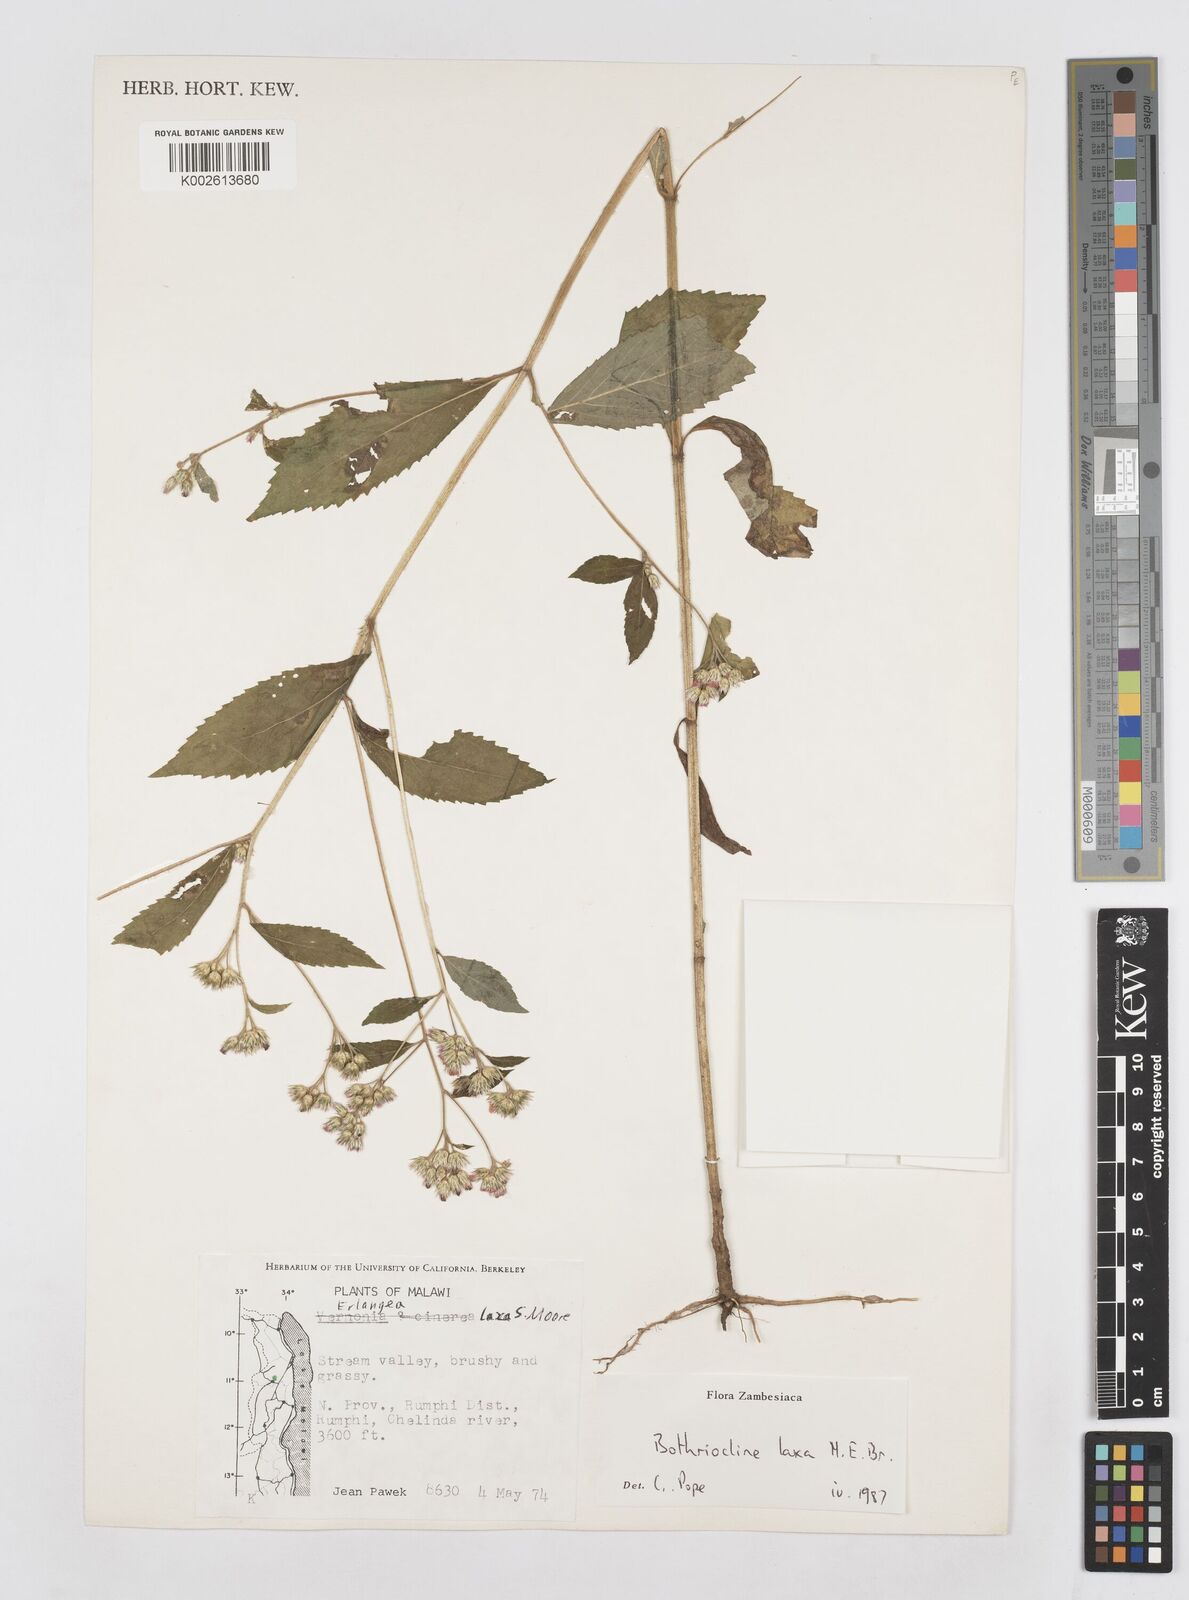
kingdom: Plantae
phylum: Tracheophyta
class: Magnoliopsida
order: Asterales
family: Asteraceae
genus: Bothriocline
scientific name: Bothriocline laxa
